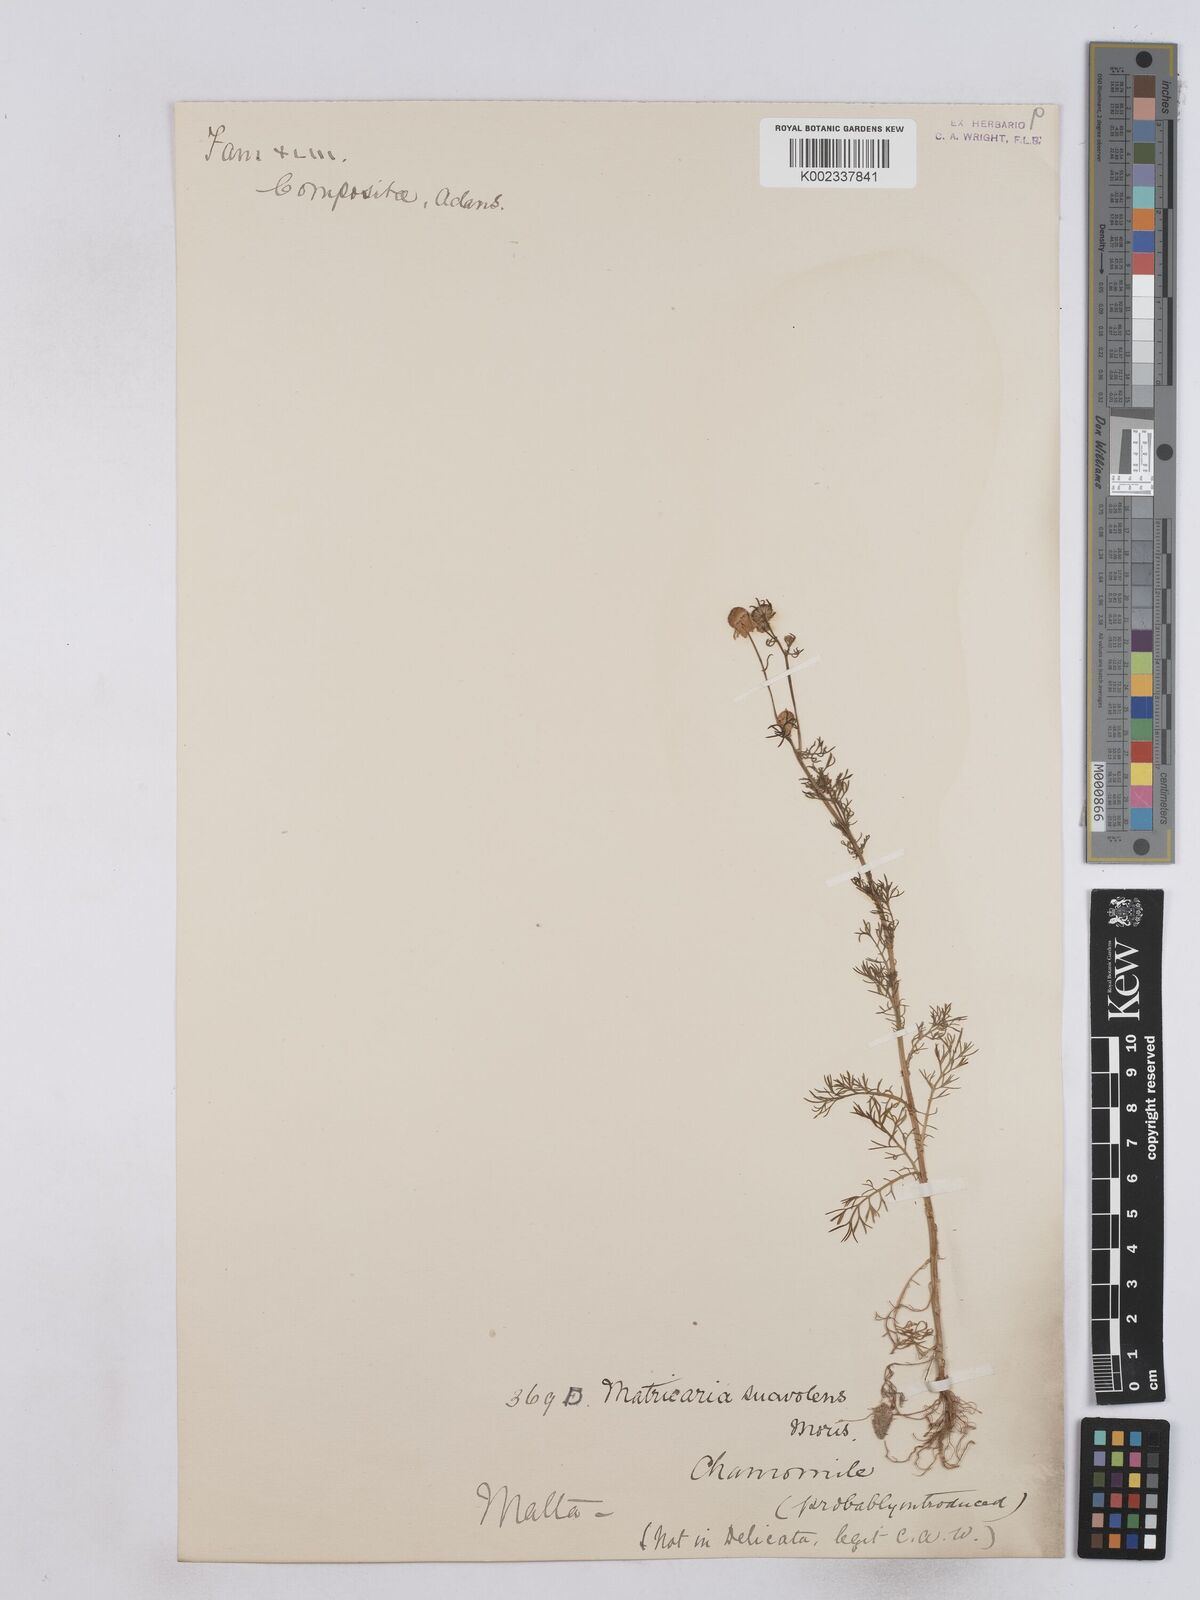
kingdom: Plantae
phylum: Tracheophyta
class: Magnoliopsida
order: Asterales
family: Asteraceae
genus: Matricaria
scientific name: Matricaria chamomilla
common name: Scented mayweed
